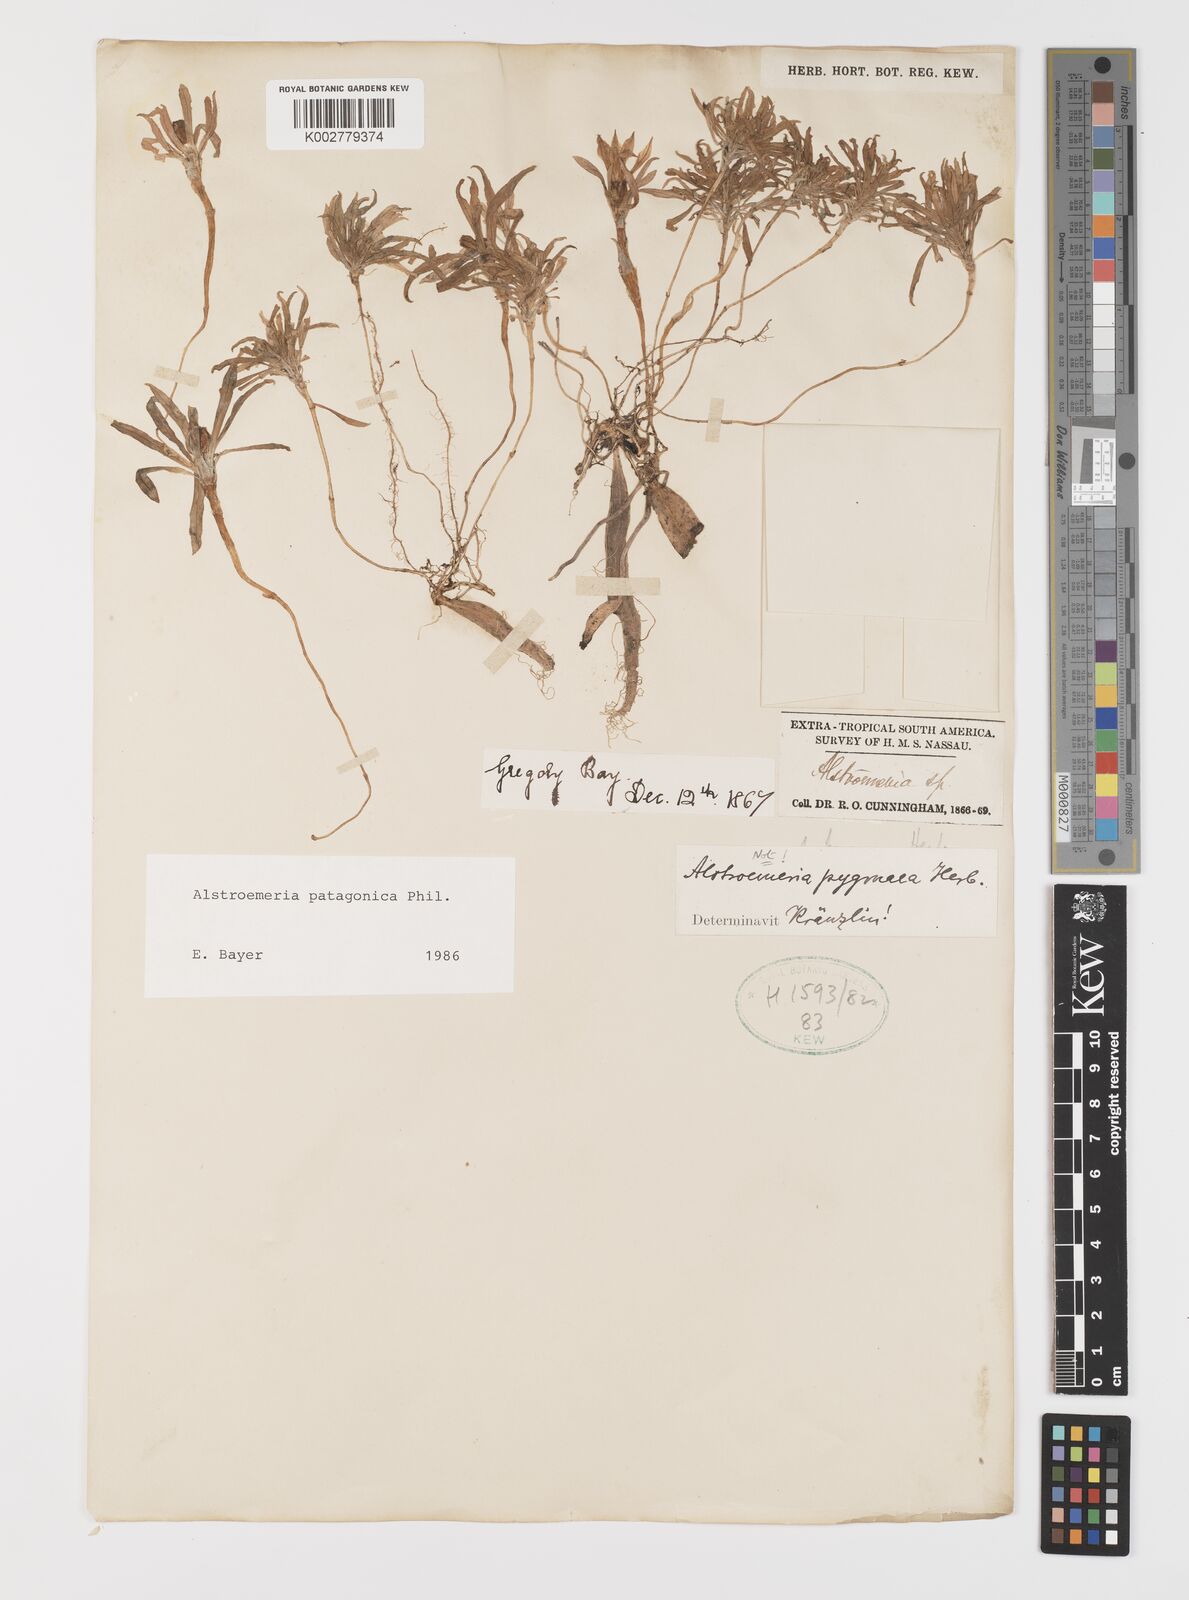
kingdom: Plantae
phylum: Tracheophyta
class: Liliopsida
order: Liliales
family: Alstroemeriaceae
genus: Alstroemeria
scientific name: Alstroemeria patagonica
